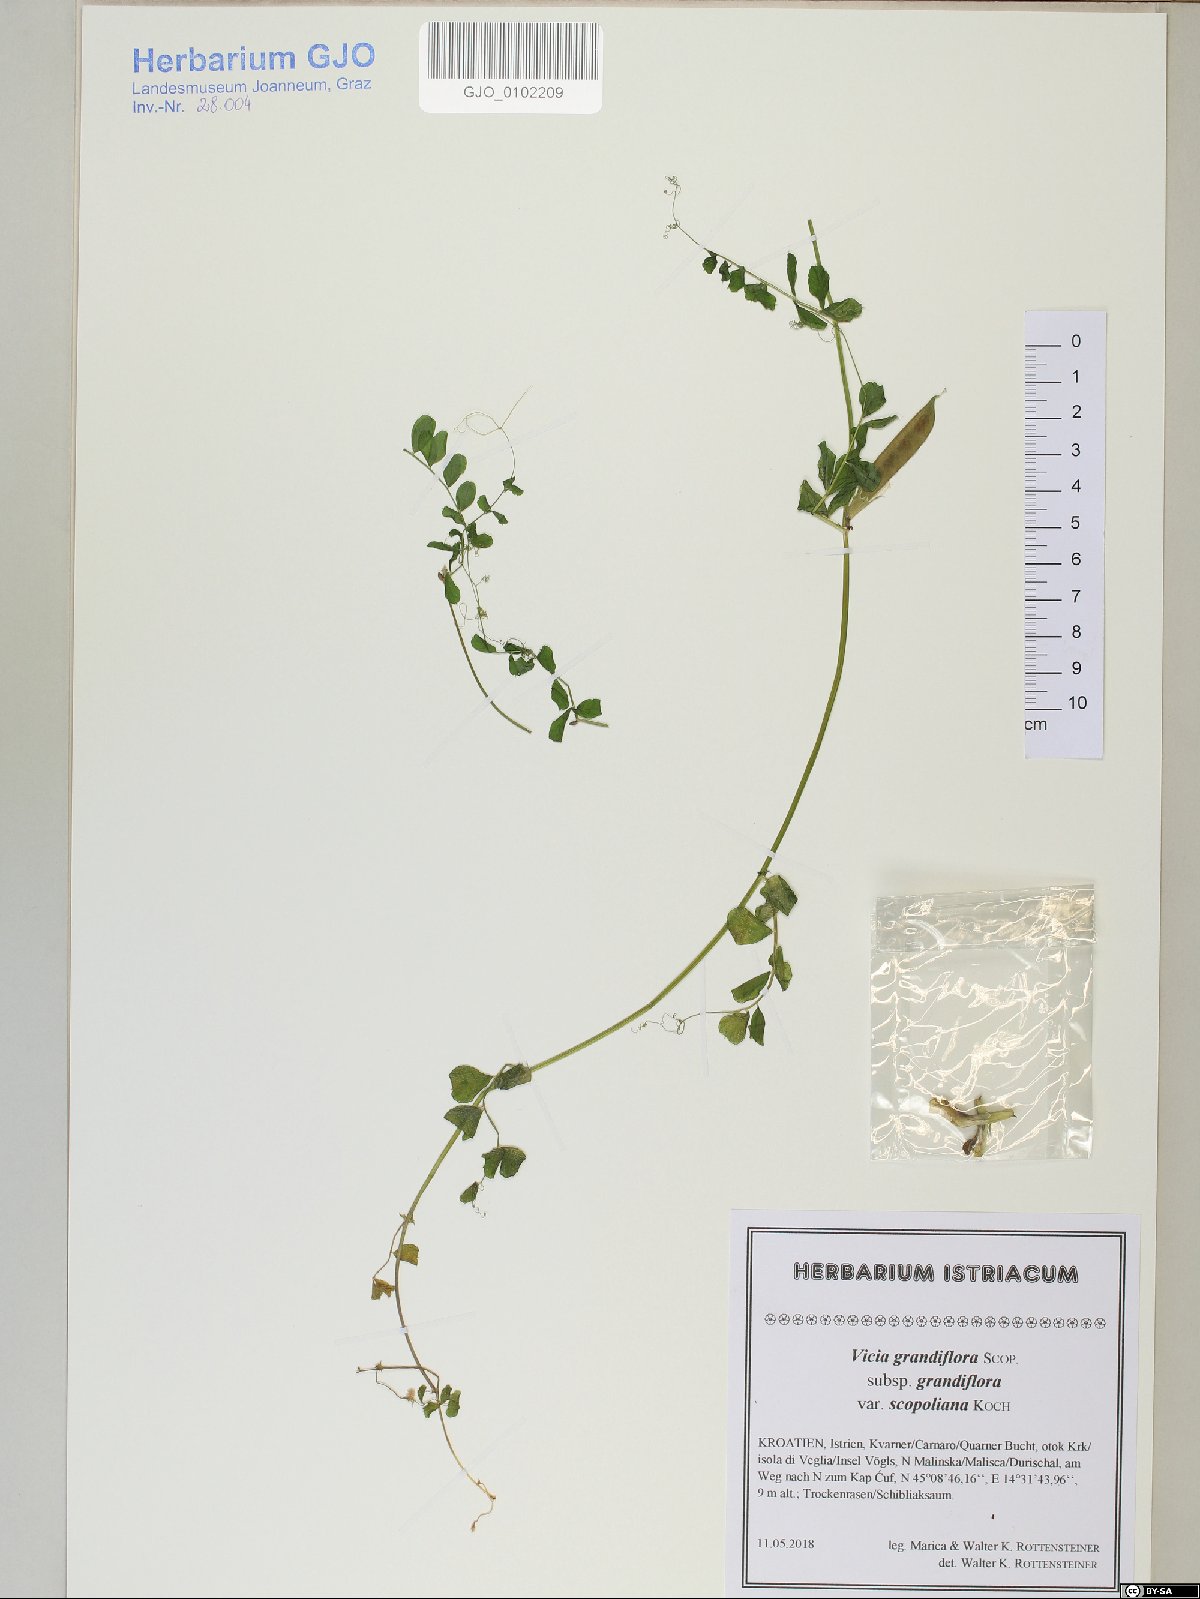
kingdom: Plantae
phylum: Tracheophyta
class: Magnoliopsida
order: Fabales
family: Fabaceae
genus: Vicia
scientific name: Vicia grandiflora
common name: Large yellow vetch
